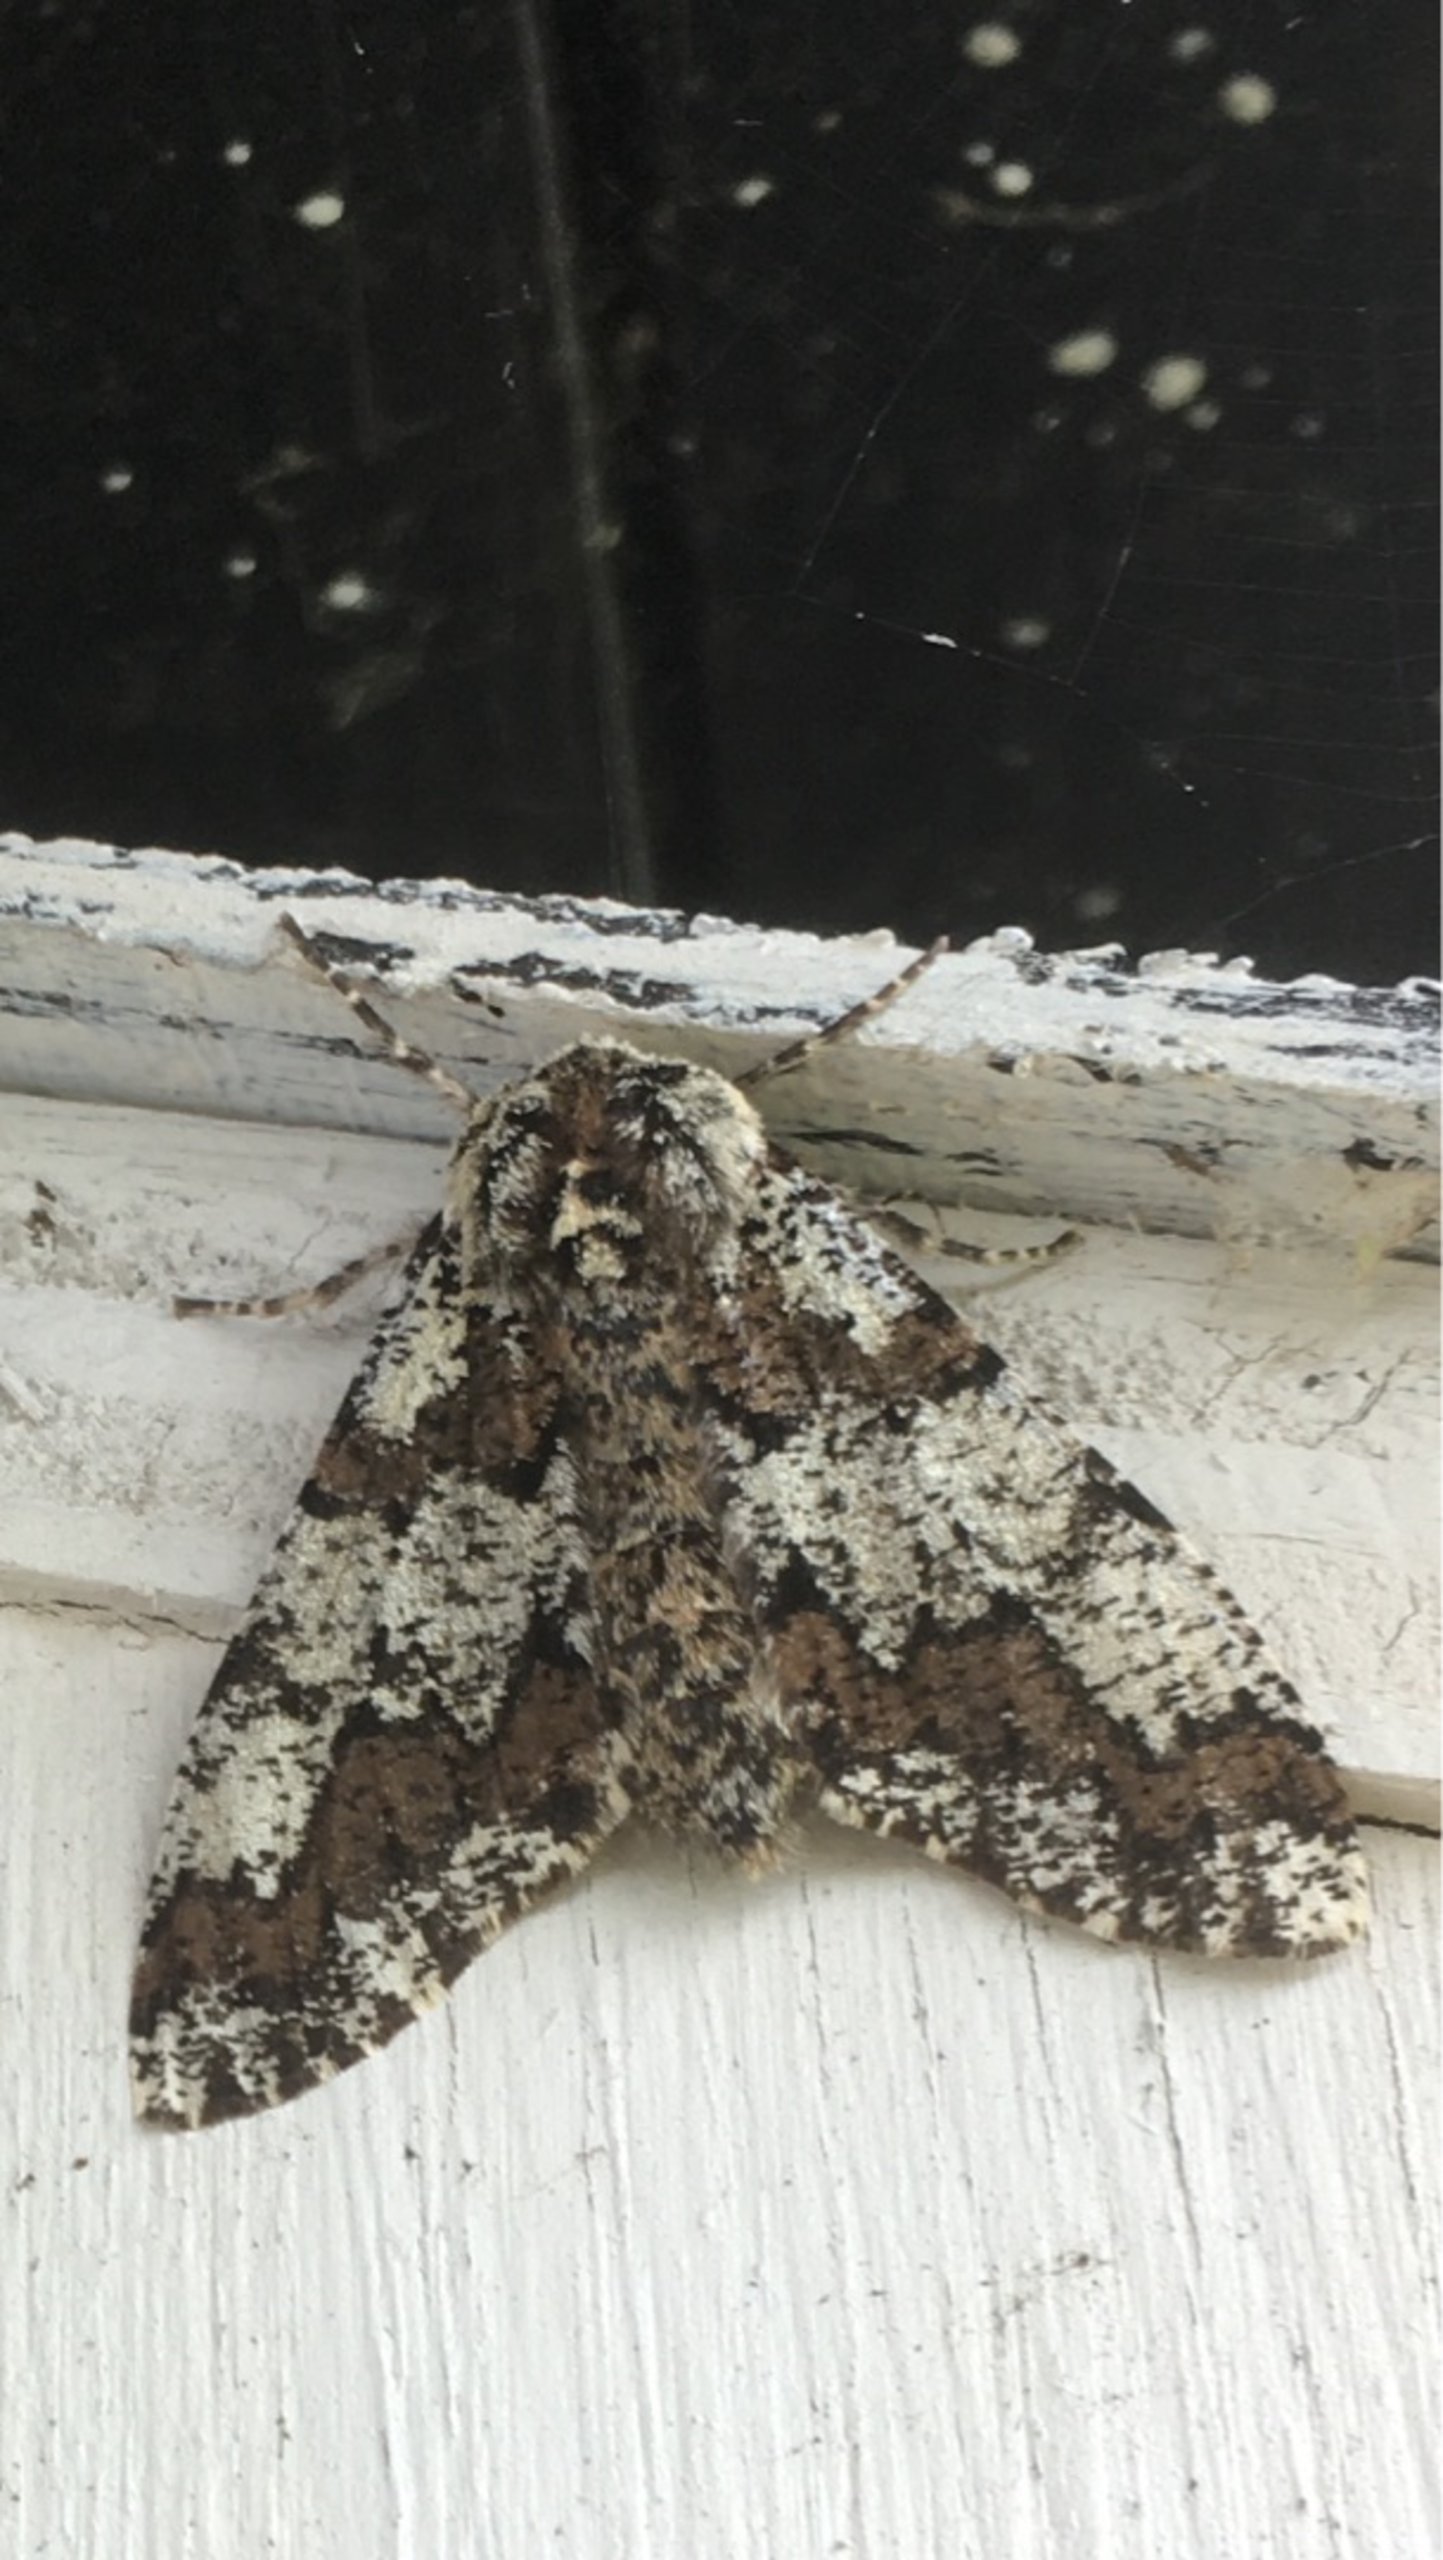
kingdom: Animalia
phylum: Arthropoda
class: Insecta
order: Lepidoptera
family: Geometridae
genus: Biston
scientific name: Biston strataria
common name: Broget vintermåler
